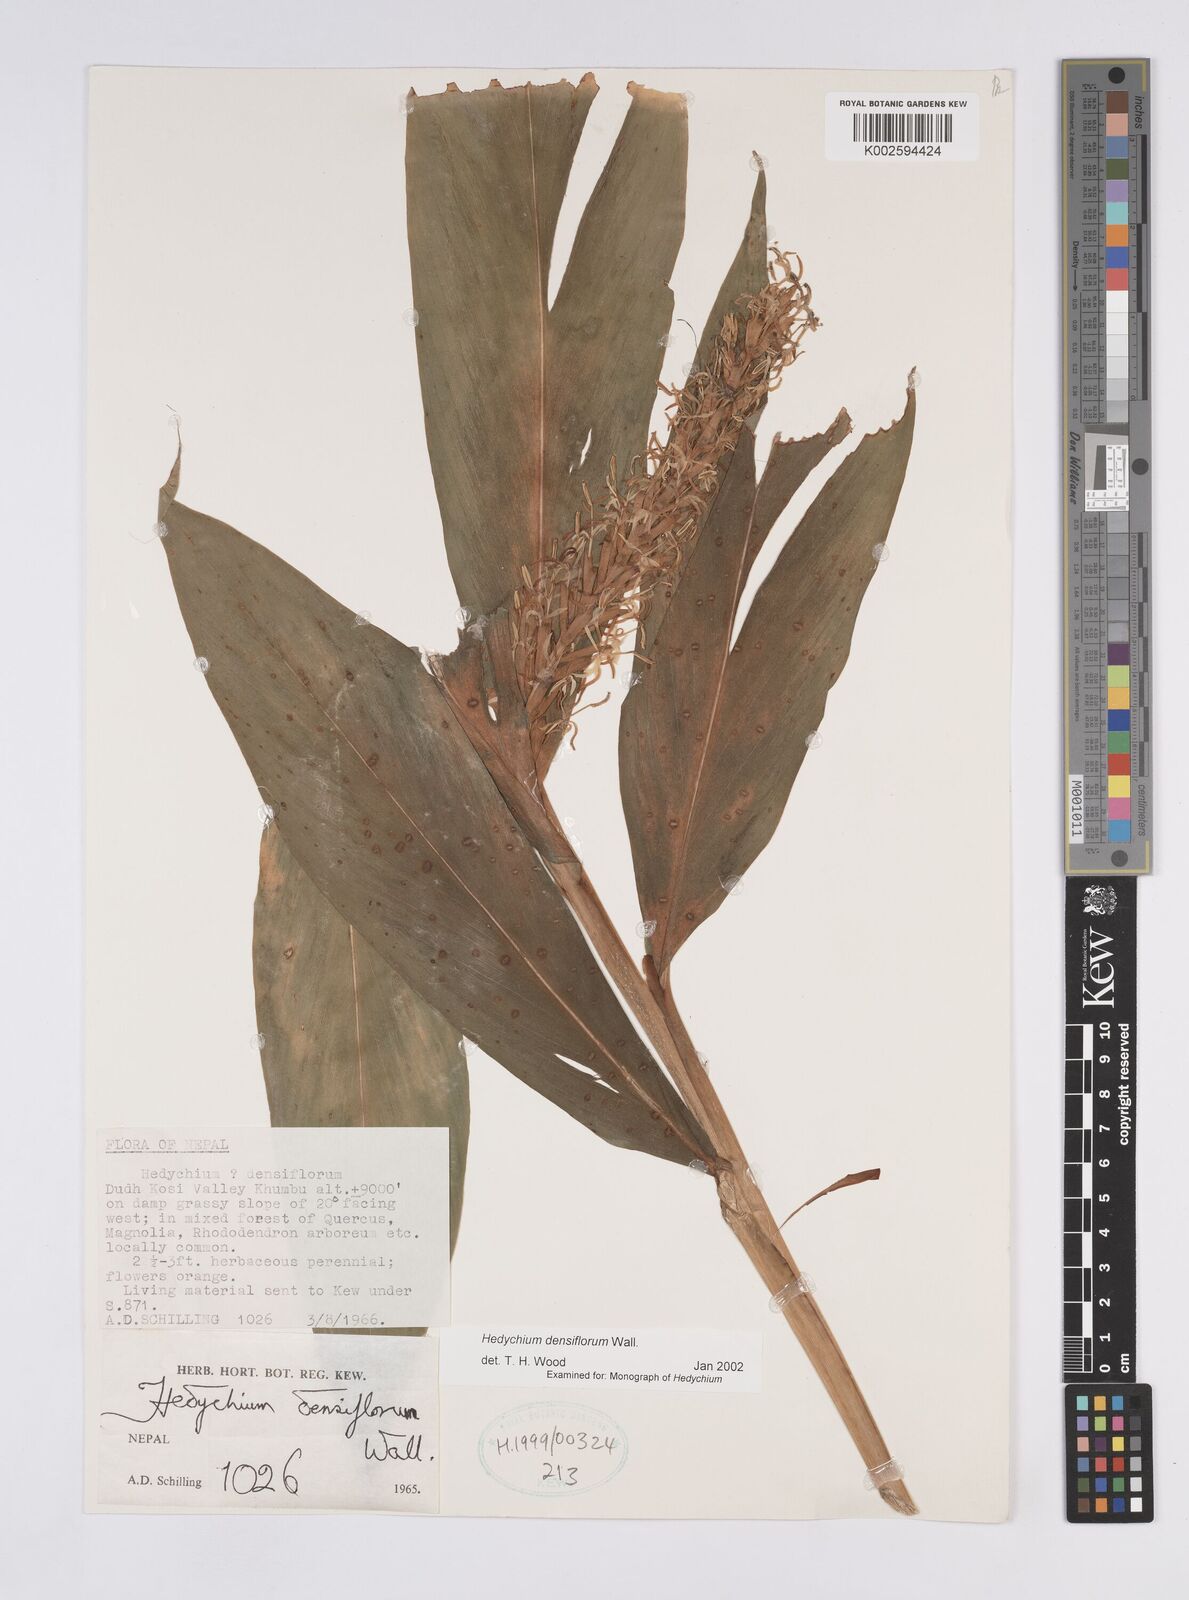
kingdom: Plantae
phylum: Tracheophyta
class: Liliopsida
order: Zingiberales
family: Zingiberaceae
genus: Hedychium
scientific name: Hedychium densiflorum
